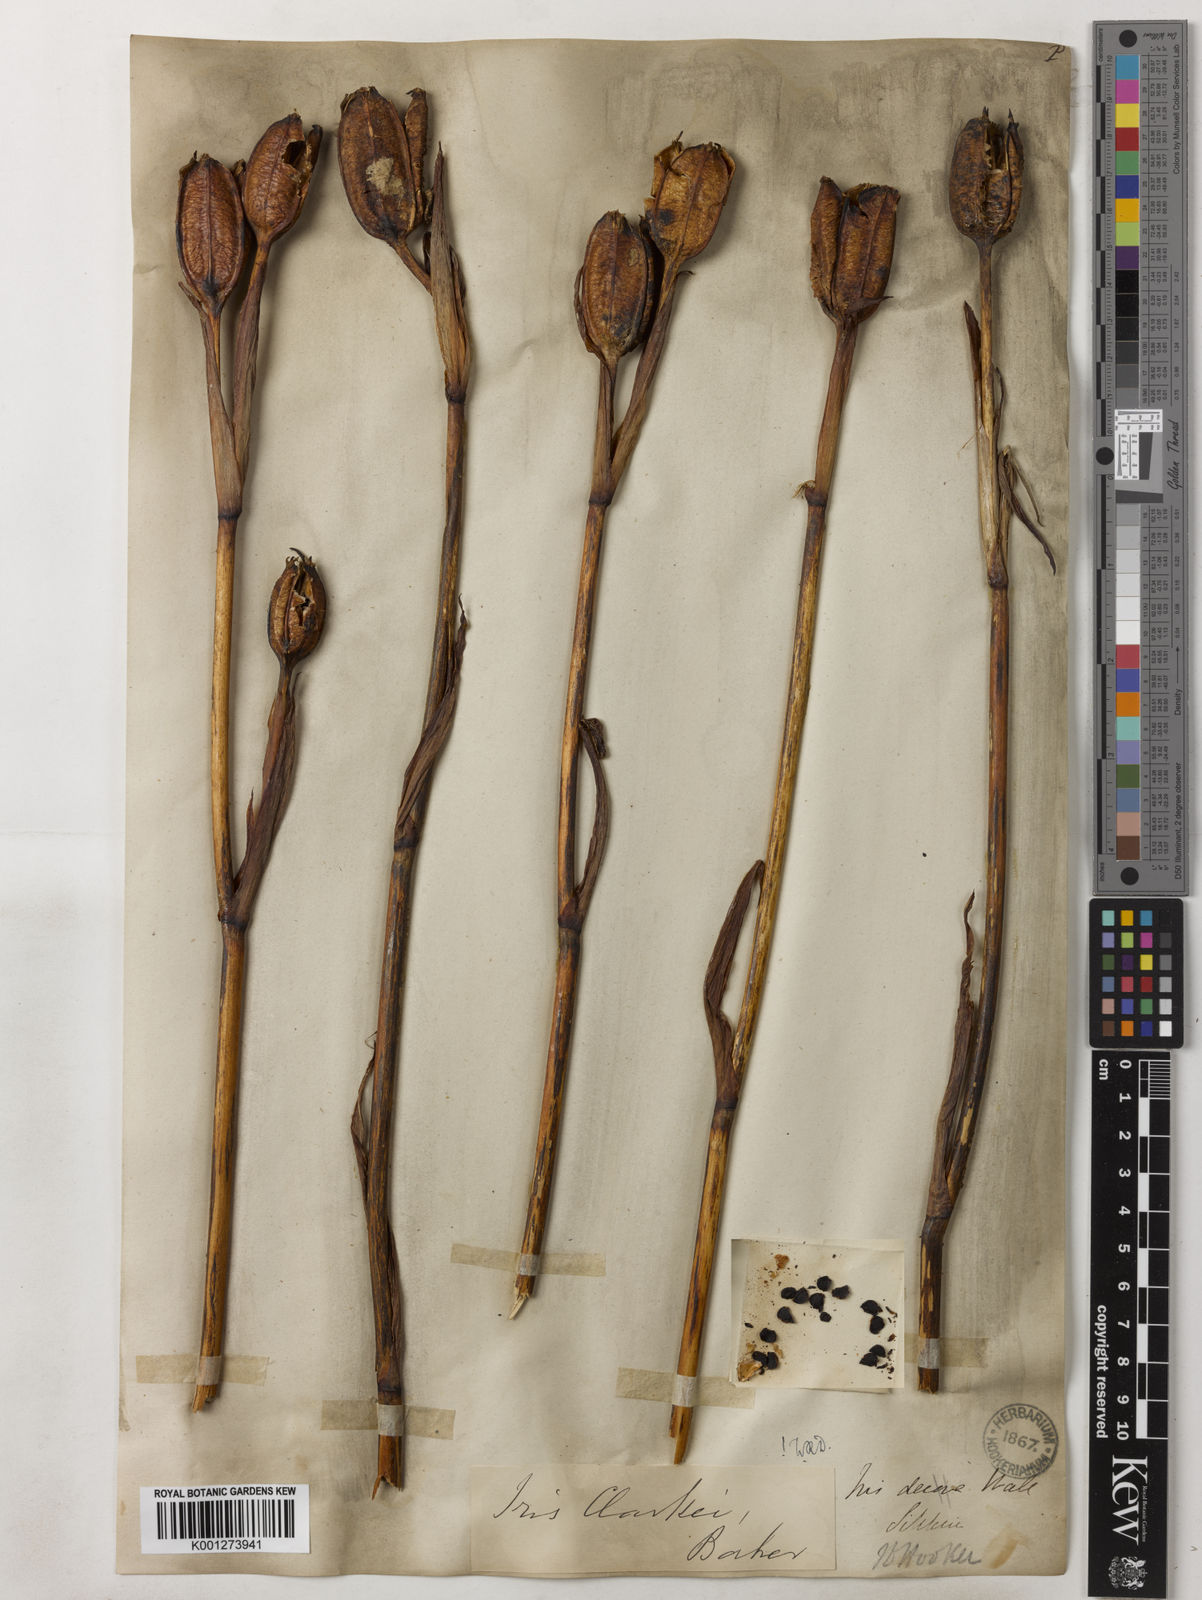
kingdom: Plantae
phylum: Tracheophyta
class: Liliopsida
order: Asparagales
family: Iridaceae
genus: Iris
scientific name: Iris clarkei
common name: Tibet iris
